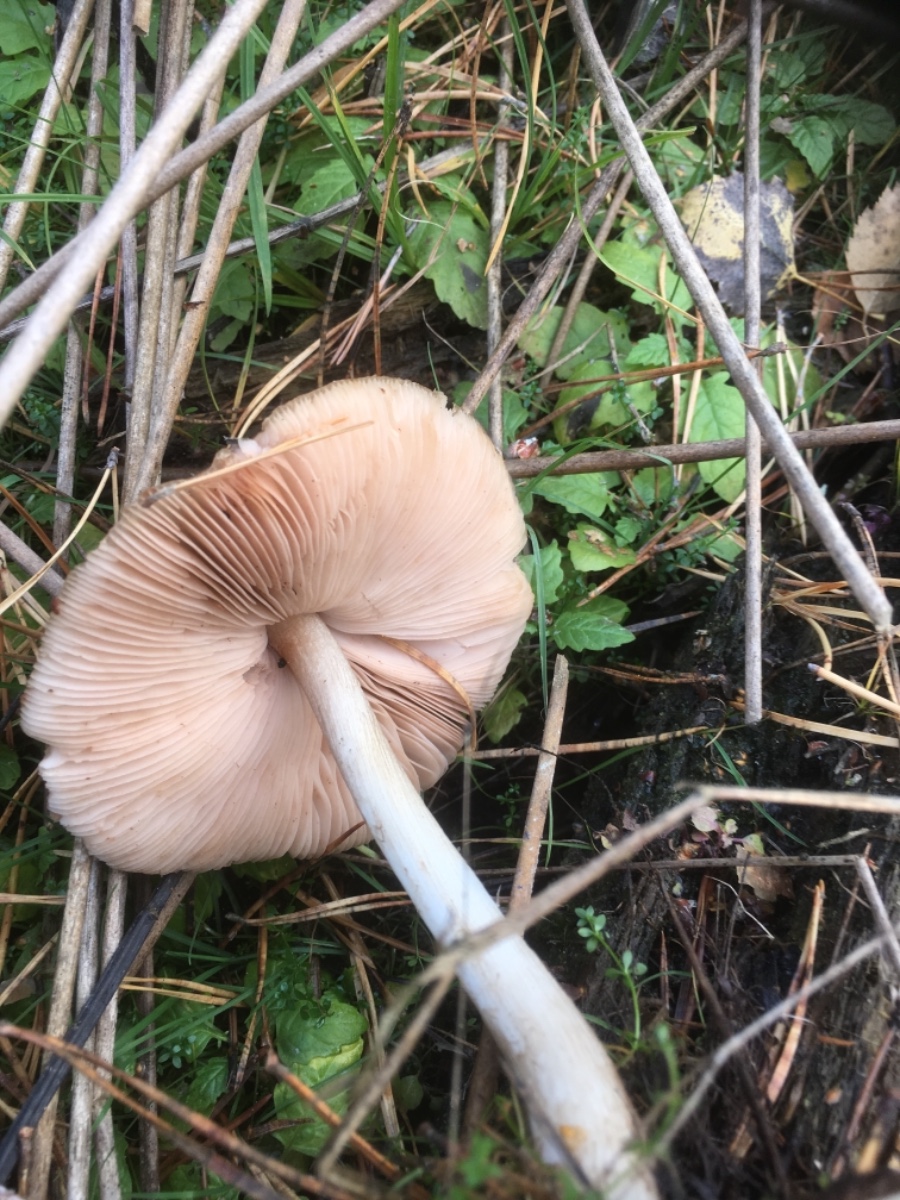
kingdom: Fungi
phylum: Basidiomycota
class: Agaricomycetes
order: Agaricales
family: Pluteaceae
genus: Pluteus
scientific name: Pluteus cervinus
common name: sodfarvet skærmhat
